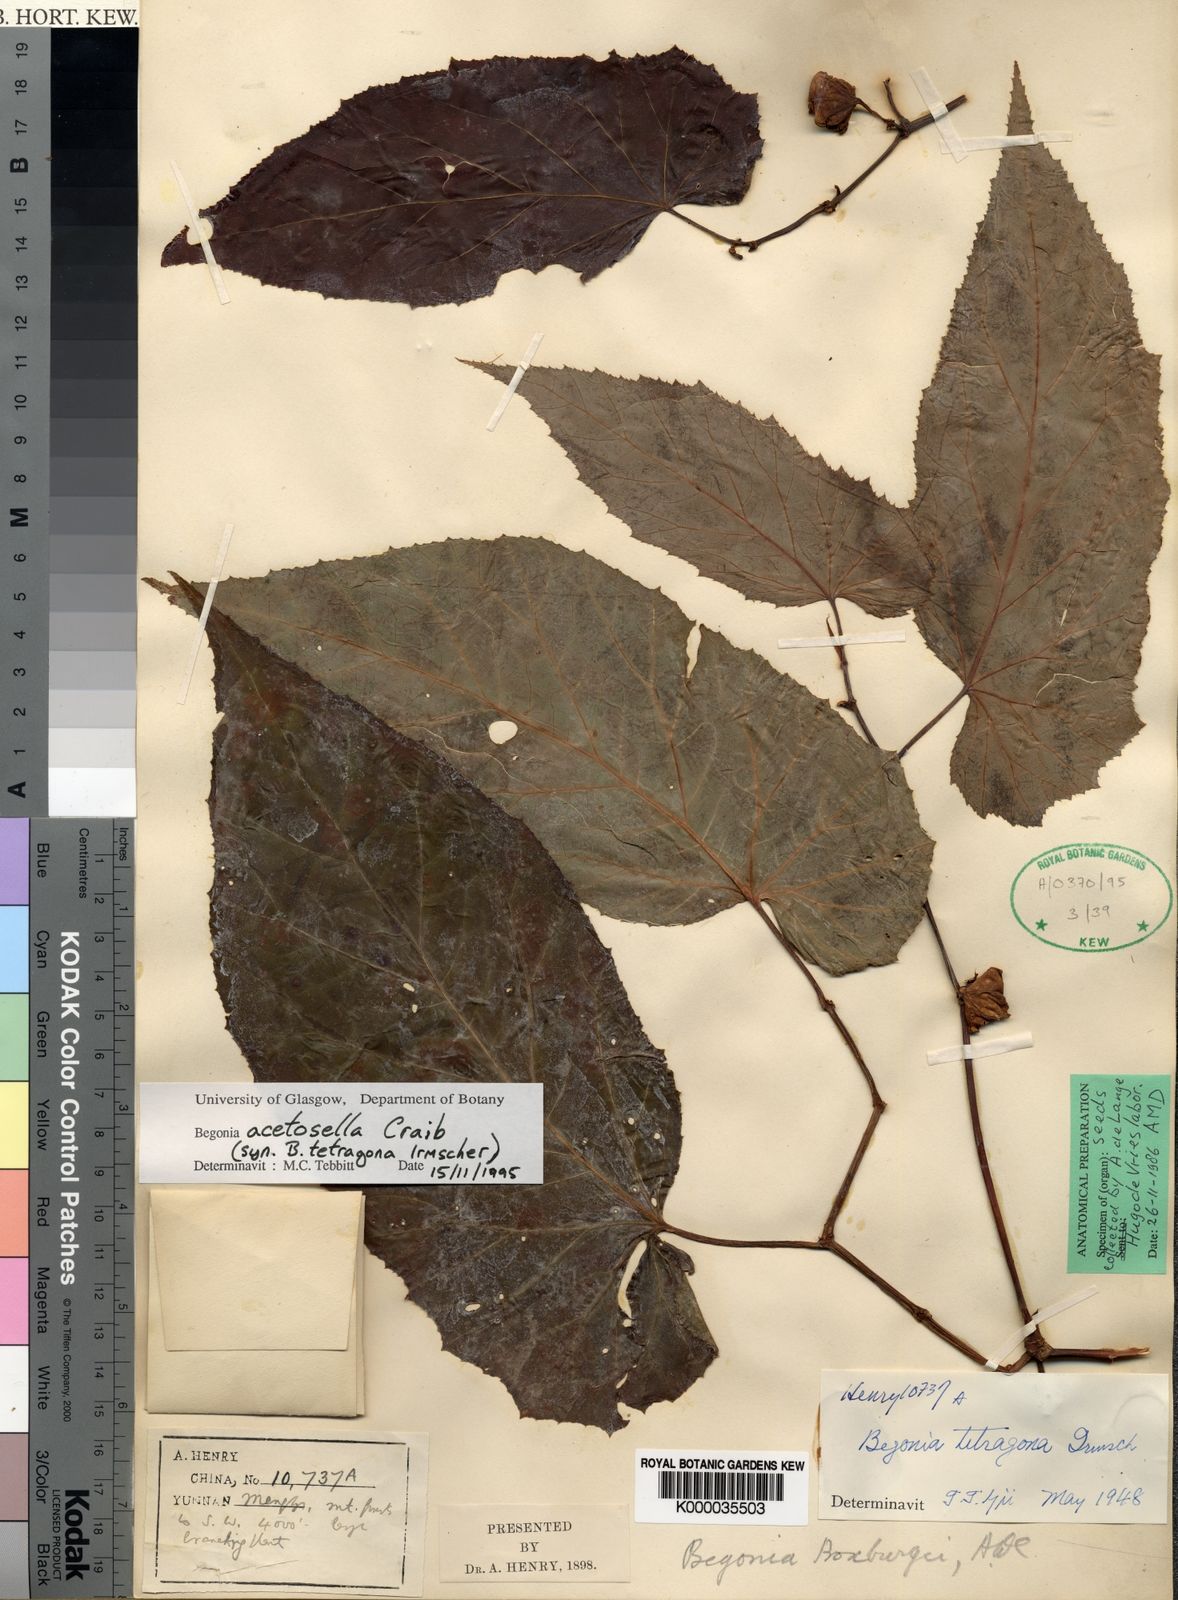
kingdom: Plantae
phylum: Tracheophyta
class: Magnoliopsida
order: Cucurbitales
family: Begoniaceae
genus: Begonia
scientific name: Begonia acetosella
